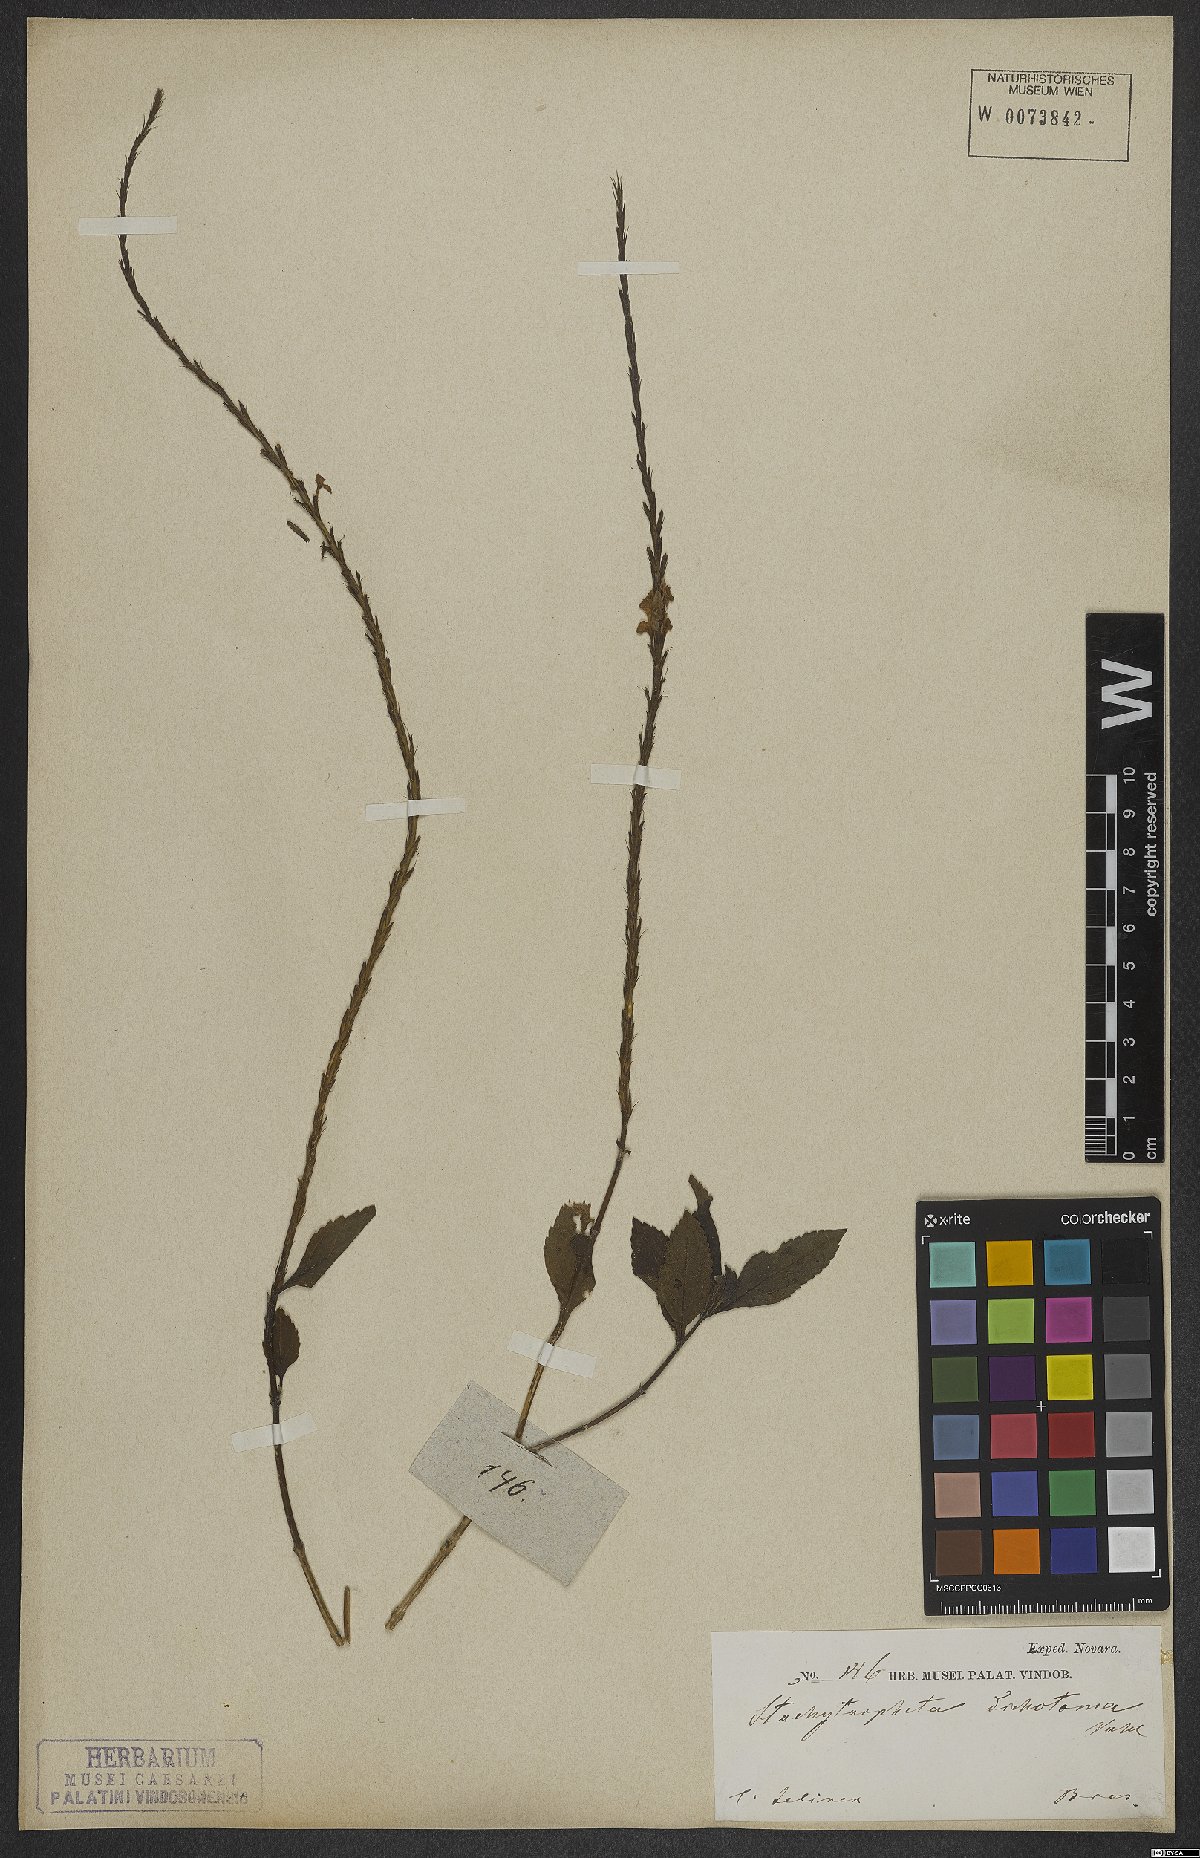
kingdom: Plantae
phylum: Tracheophyta
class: Magnoliopsida
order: Lamiales
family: Verbenaceae
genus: Stachytarpheta
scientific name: Stachytarpheta cayennensis
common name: Cayenne porterweed
